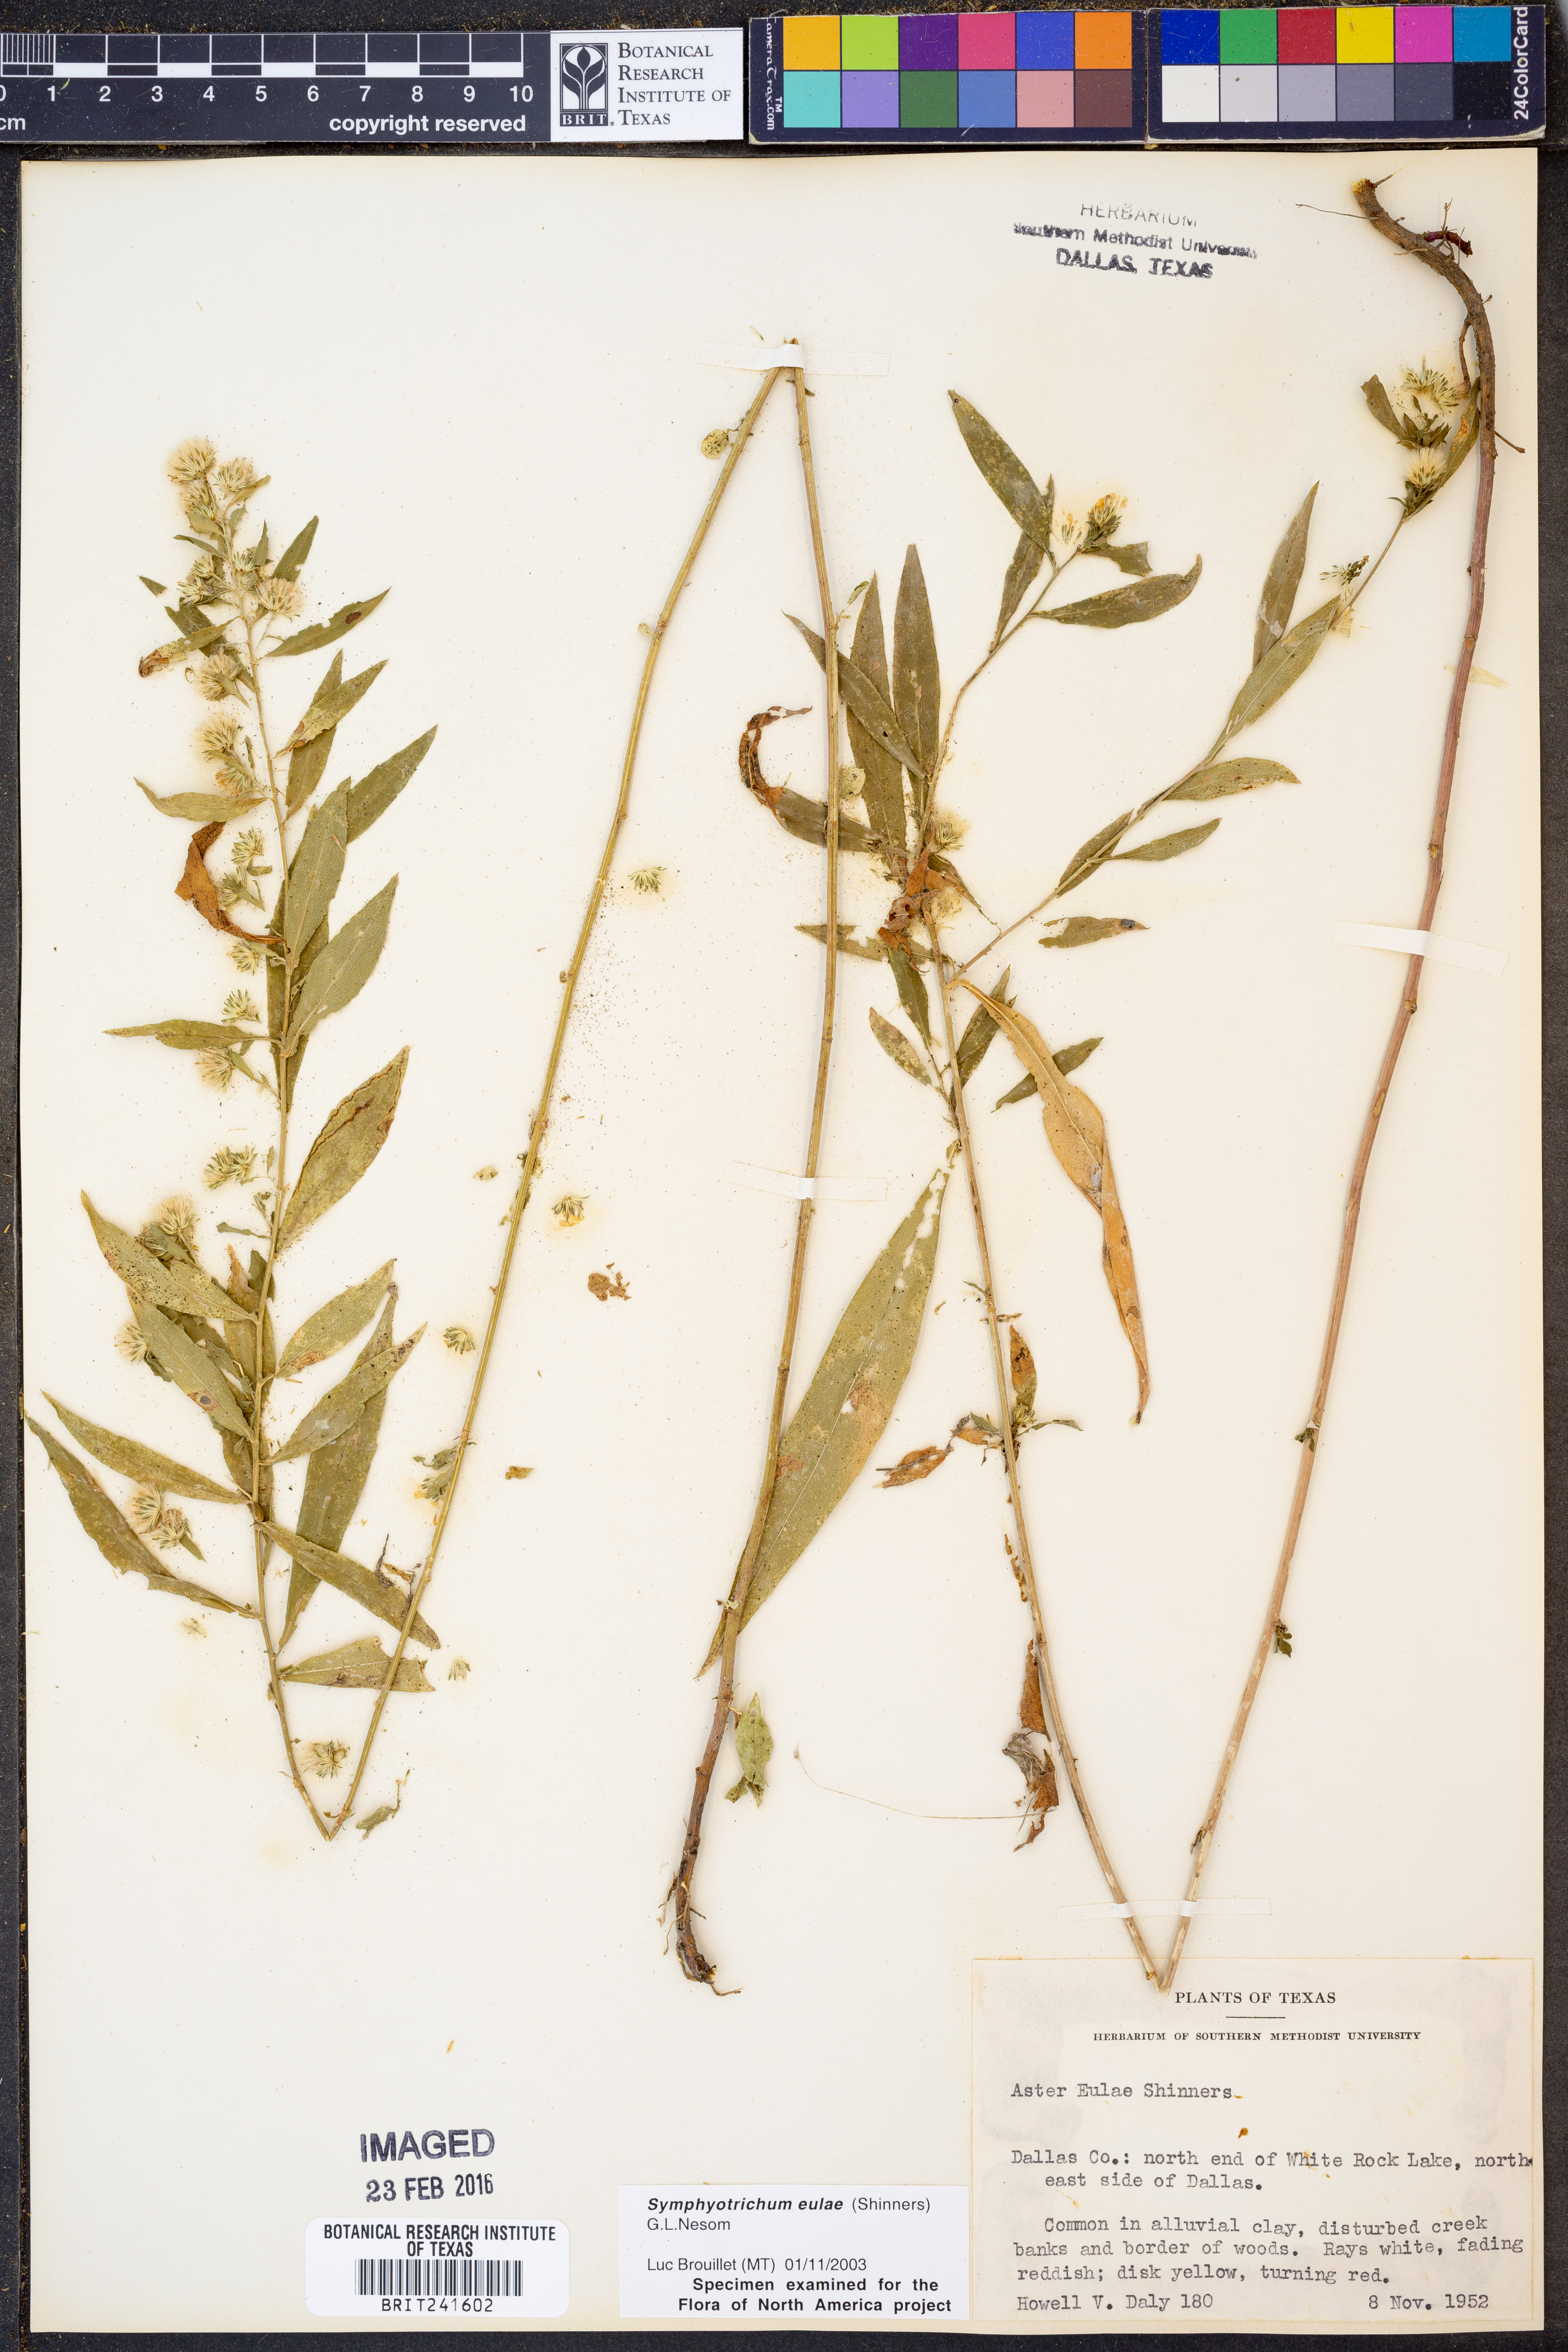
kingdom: Plantae
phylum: Tracheophyta
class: Magnoliopsida
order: Asterales
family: Asteraceae
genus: Symphyotrichum
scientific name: Symphyotrichum eulae
